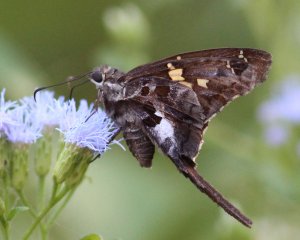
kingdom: Animalia
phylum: Arthropoda
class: Insecta
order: Lepidoptera
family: Hesperiidae
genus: Chioides
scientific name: Chioides zilpa
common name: Zilpa Longtail
